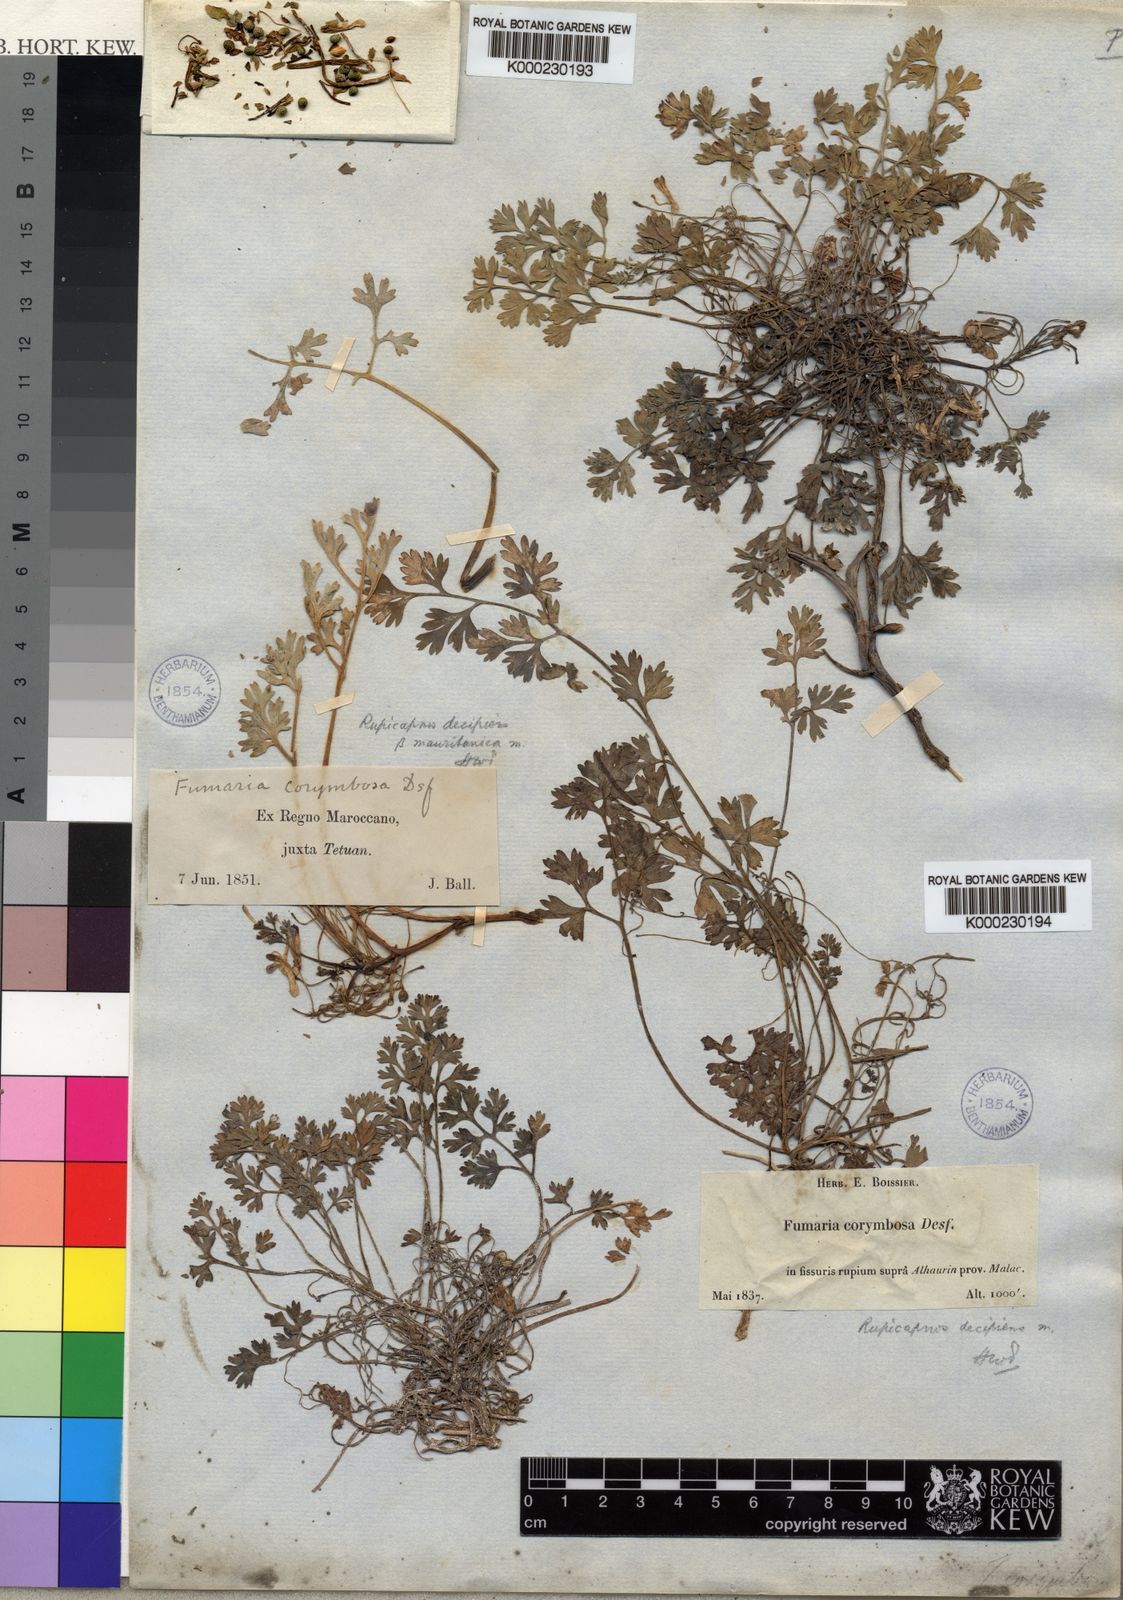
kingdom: Plantae
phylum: Tracheophyta
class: Magnoliopsida
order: Ranunculales
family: Papaveraceae
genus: Rupicapnos
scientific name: Rupicapnos africana
